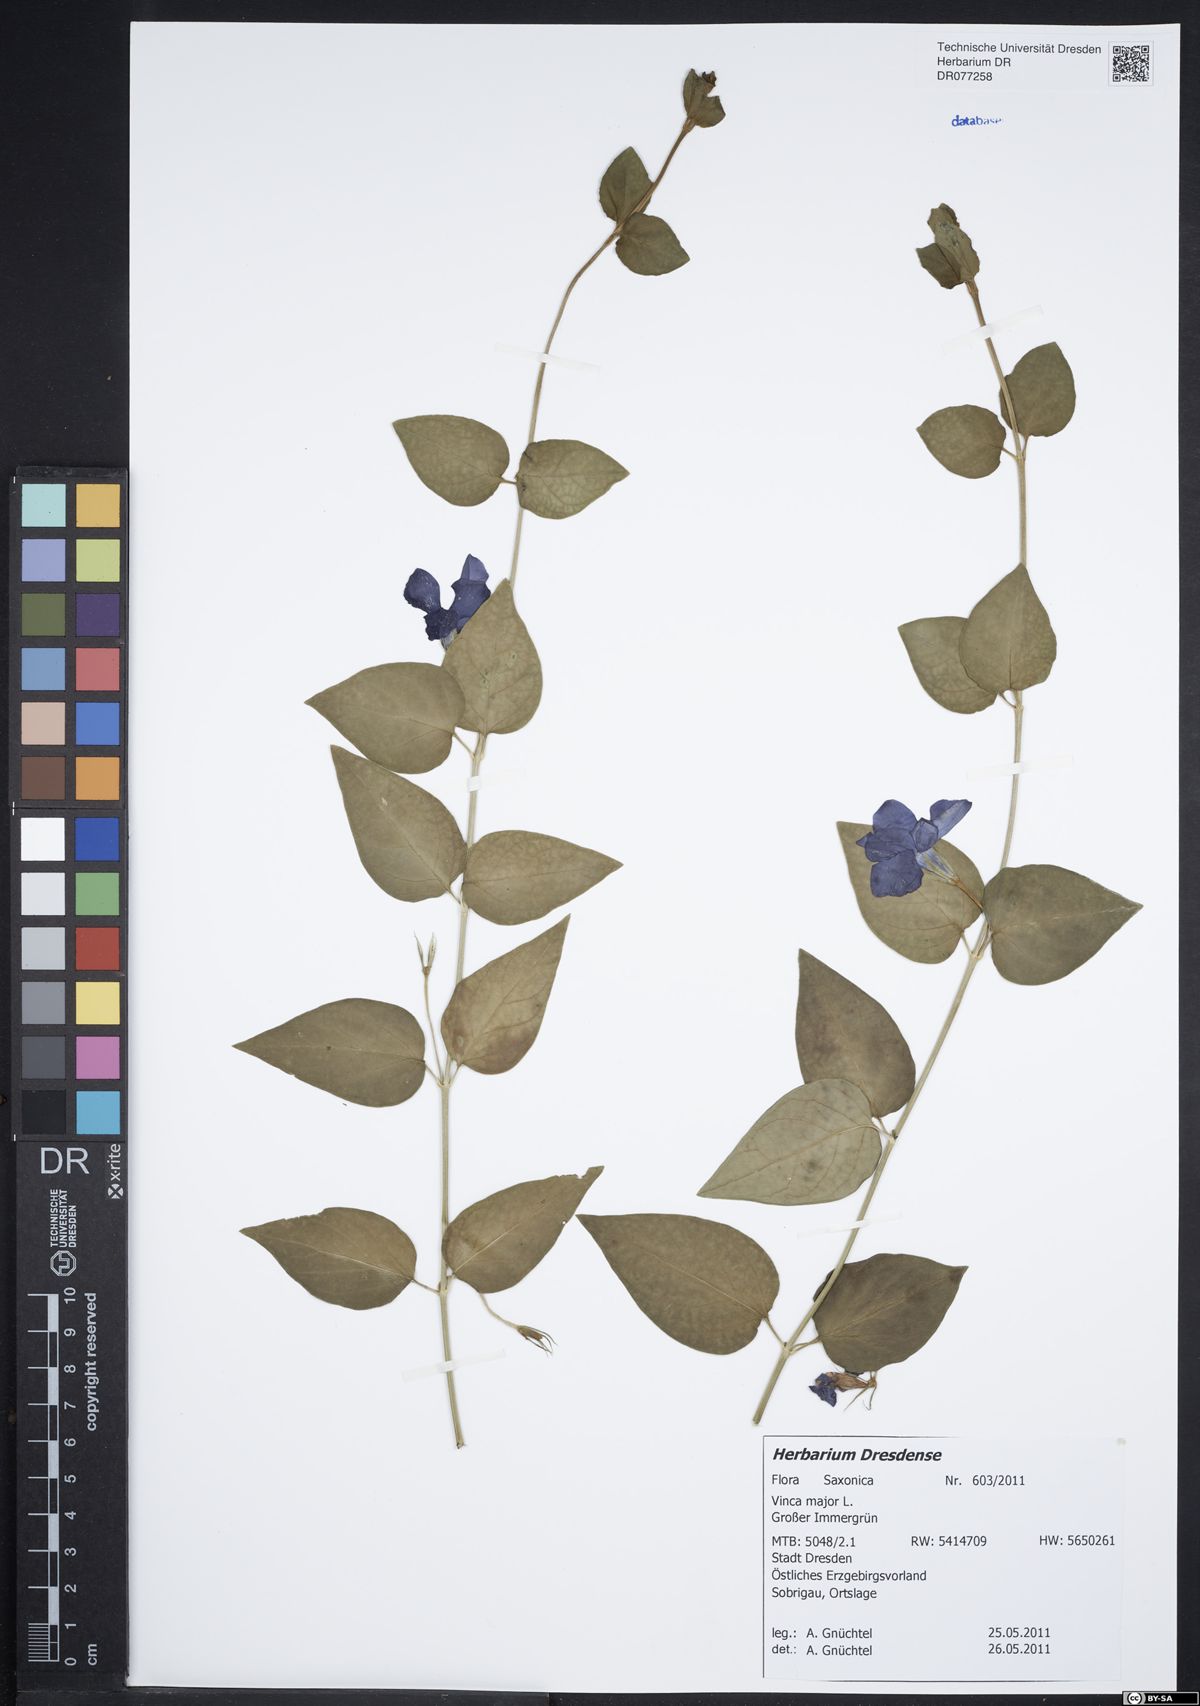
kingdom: Plantae
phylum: Tracheophyta
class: Magnoliopsida
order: Gentianales
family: Apocynaceae
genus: Vinca
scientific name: Vinca major
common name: Greater periwinkle
